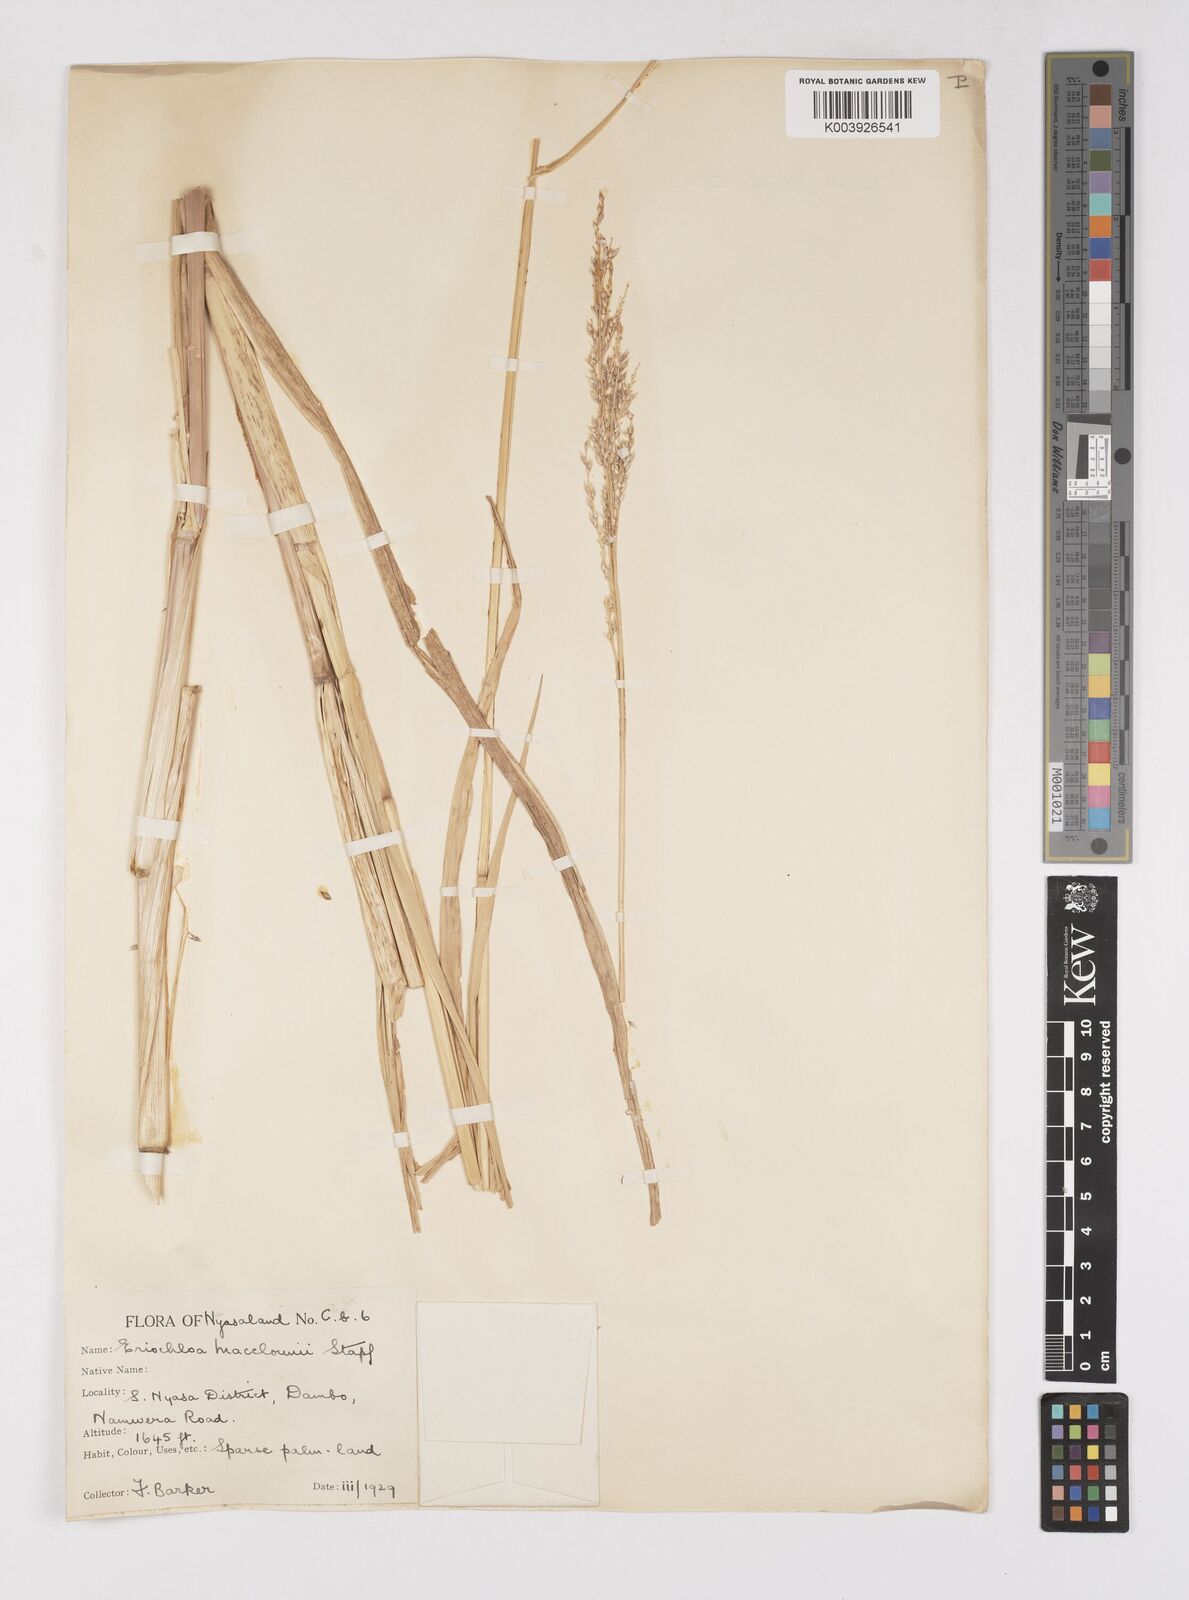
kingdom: Plantae
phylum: Tracheophyta
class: Liliopsida
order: Poales
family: Poaceae
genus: Eriochloa
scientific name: Eriochloa macclounii
